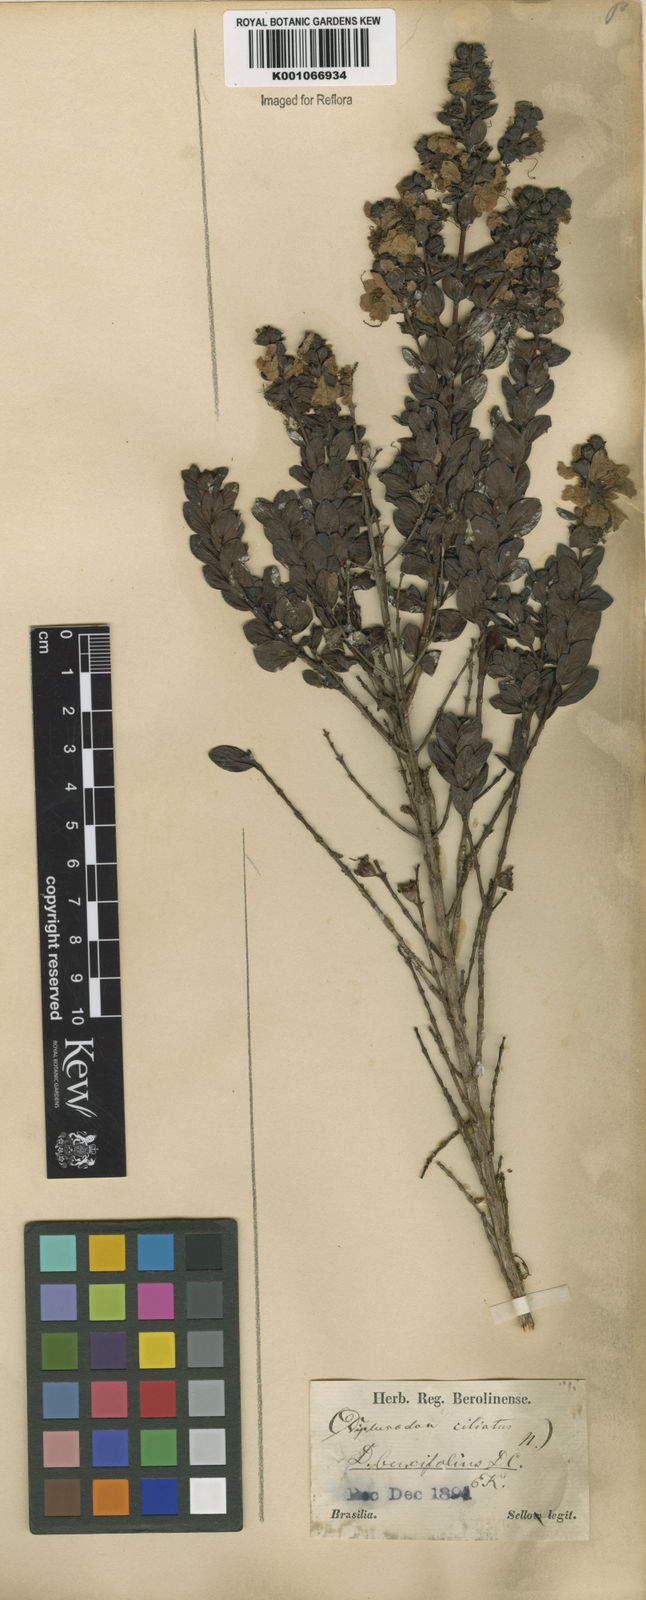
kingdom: Plantae
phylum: Tracheophyta
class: Magnoliopsida
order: Myrtales
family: Lythraceae
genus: Diplusodon
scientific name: Diplusodon buxifolius
